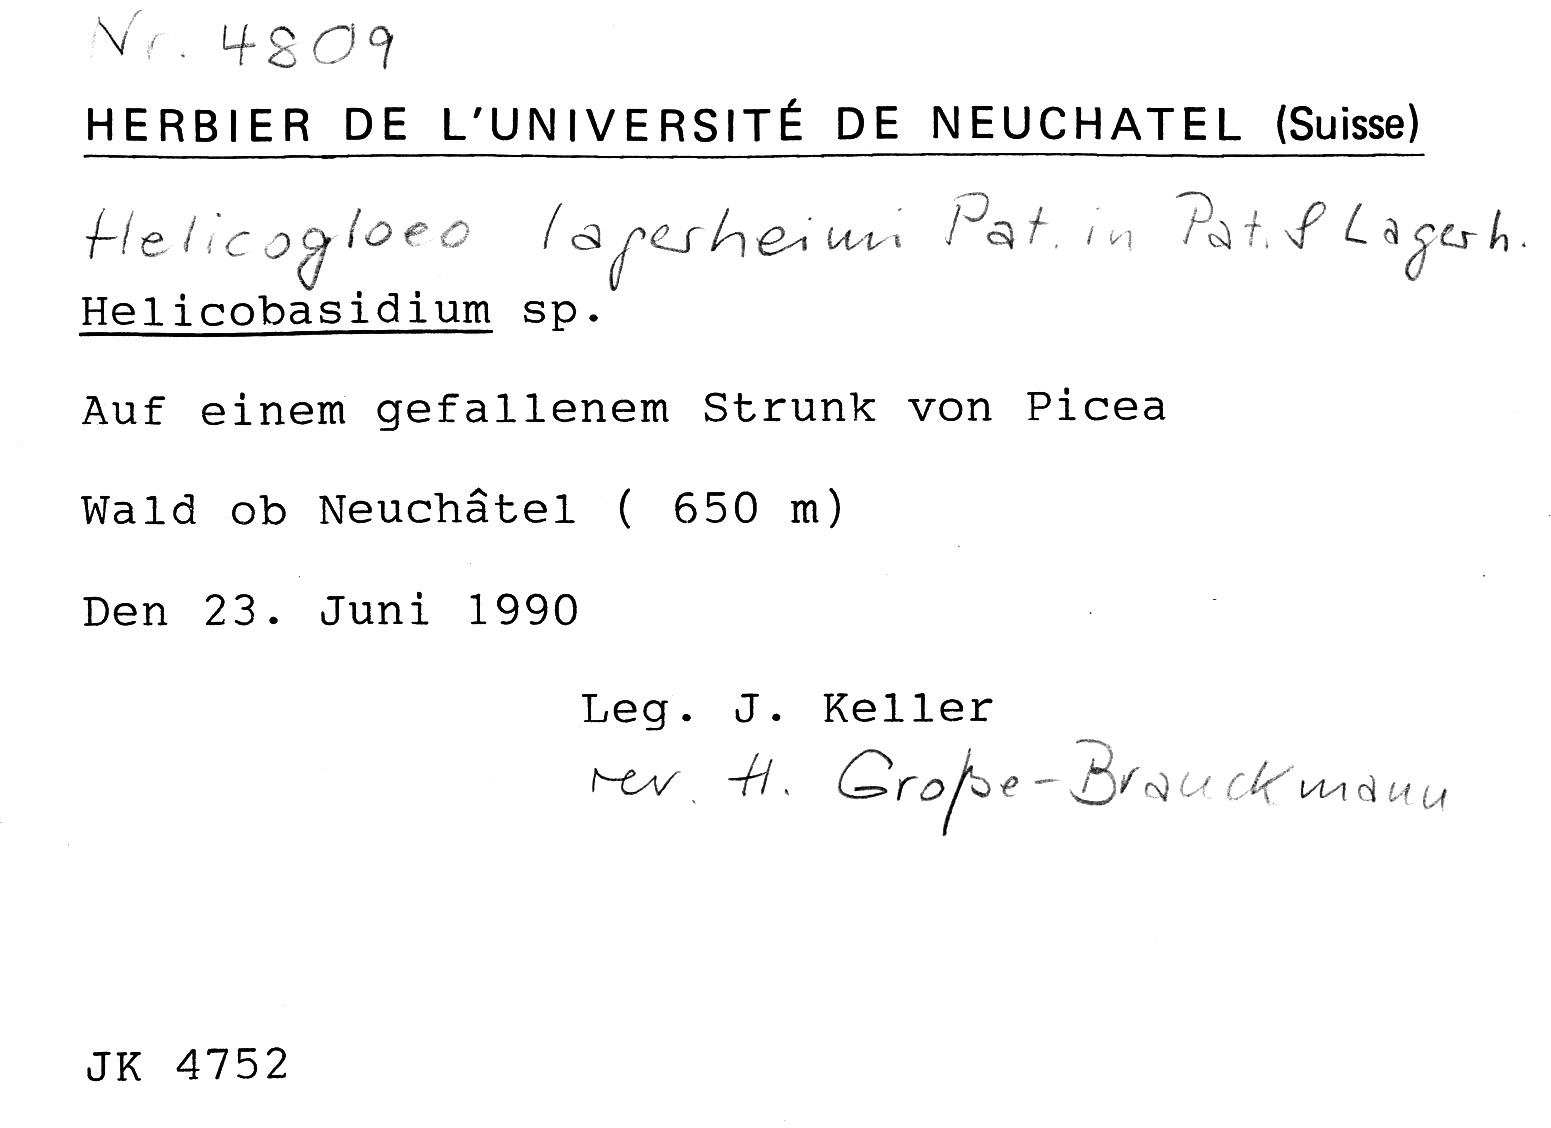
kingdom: Fungi
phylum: Basidiomycota
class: Atractiellomycetes
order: Atractiellales
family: Phleogenaceae
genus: Helicogloea
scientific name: Helicogloea lagerheimii
